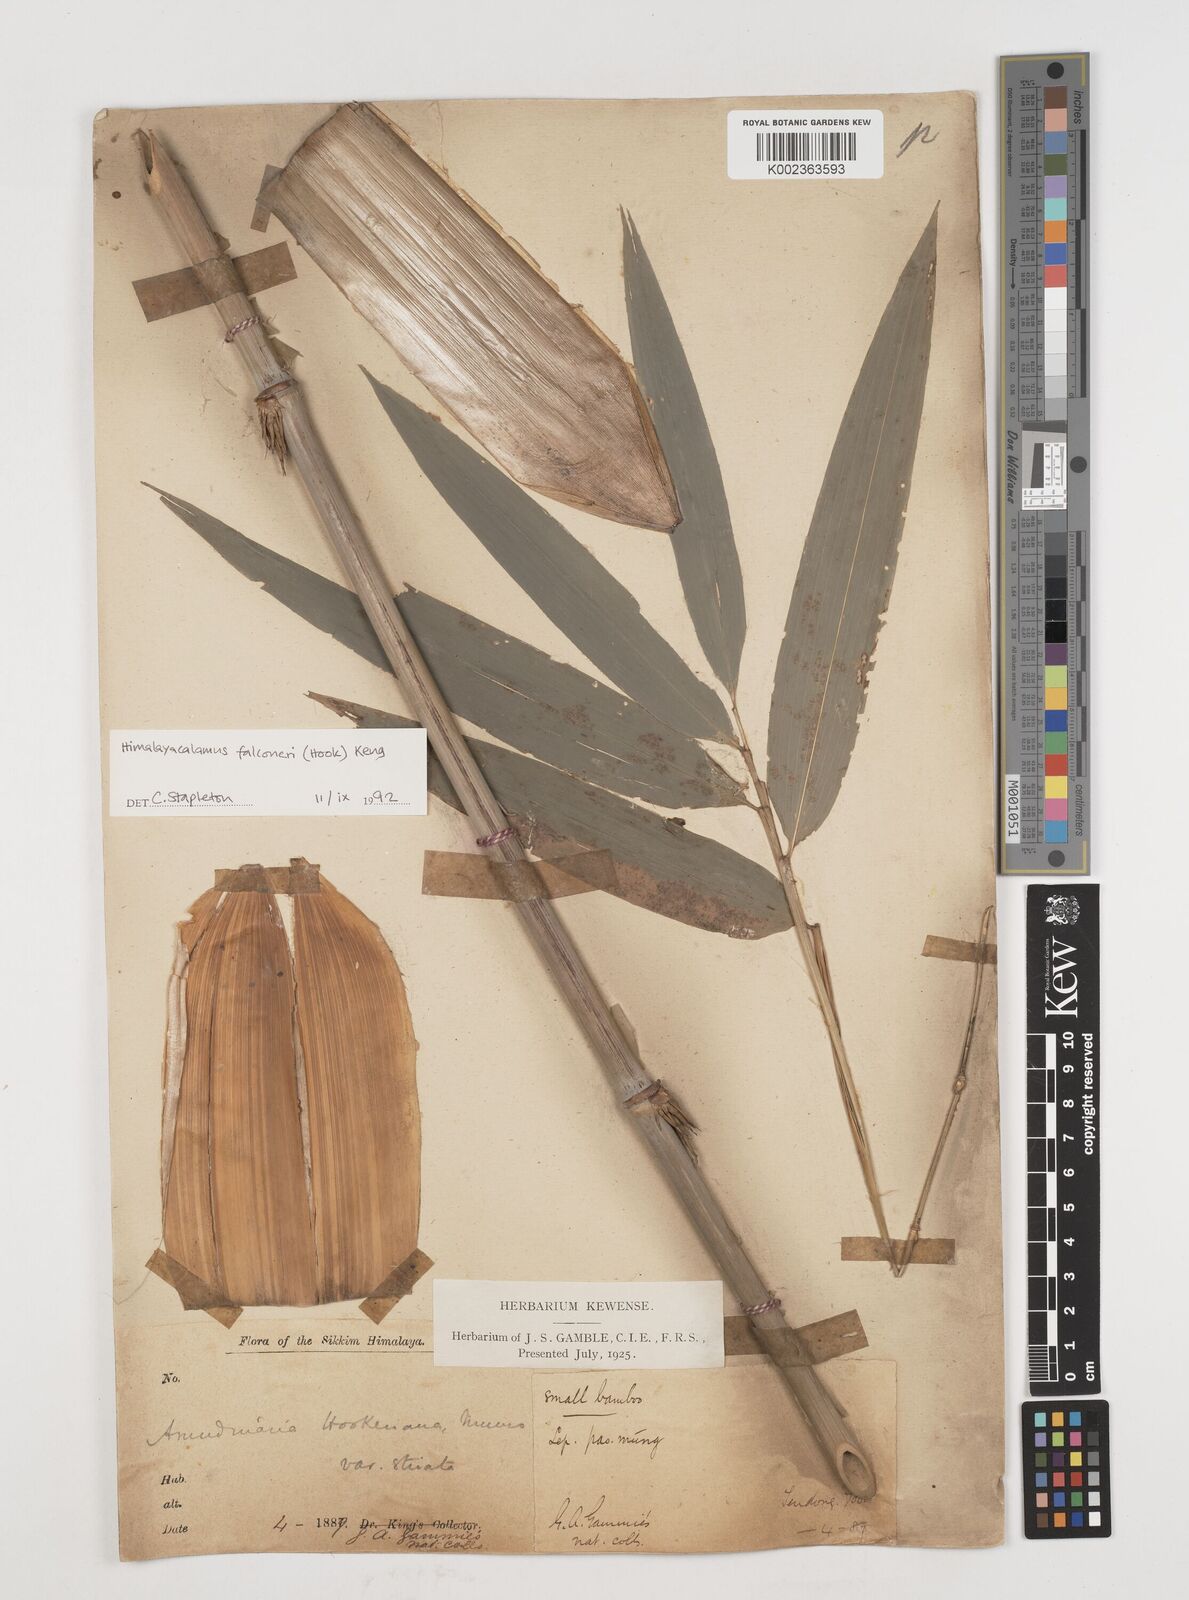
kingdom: Plantae
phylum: Tracheophyta
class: Liliopsida
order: Poales
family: Poaceae
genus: Himalayacalamus
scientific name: Himalayacalamus hookerianus
